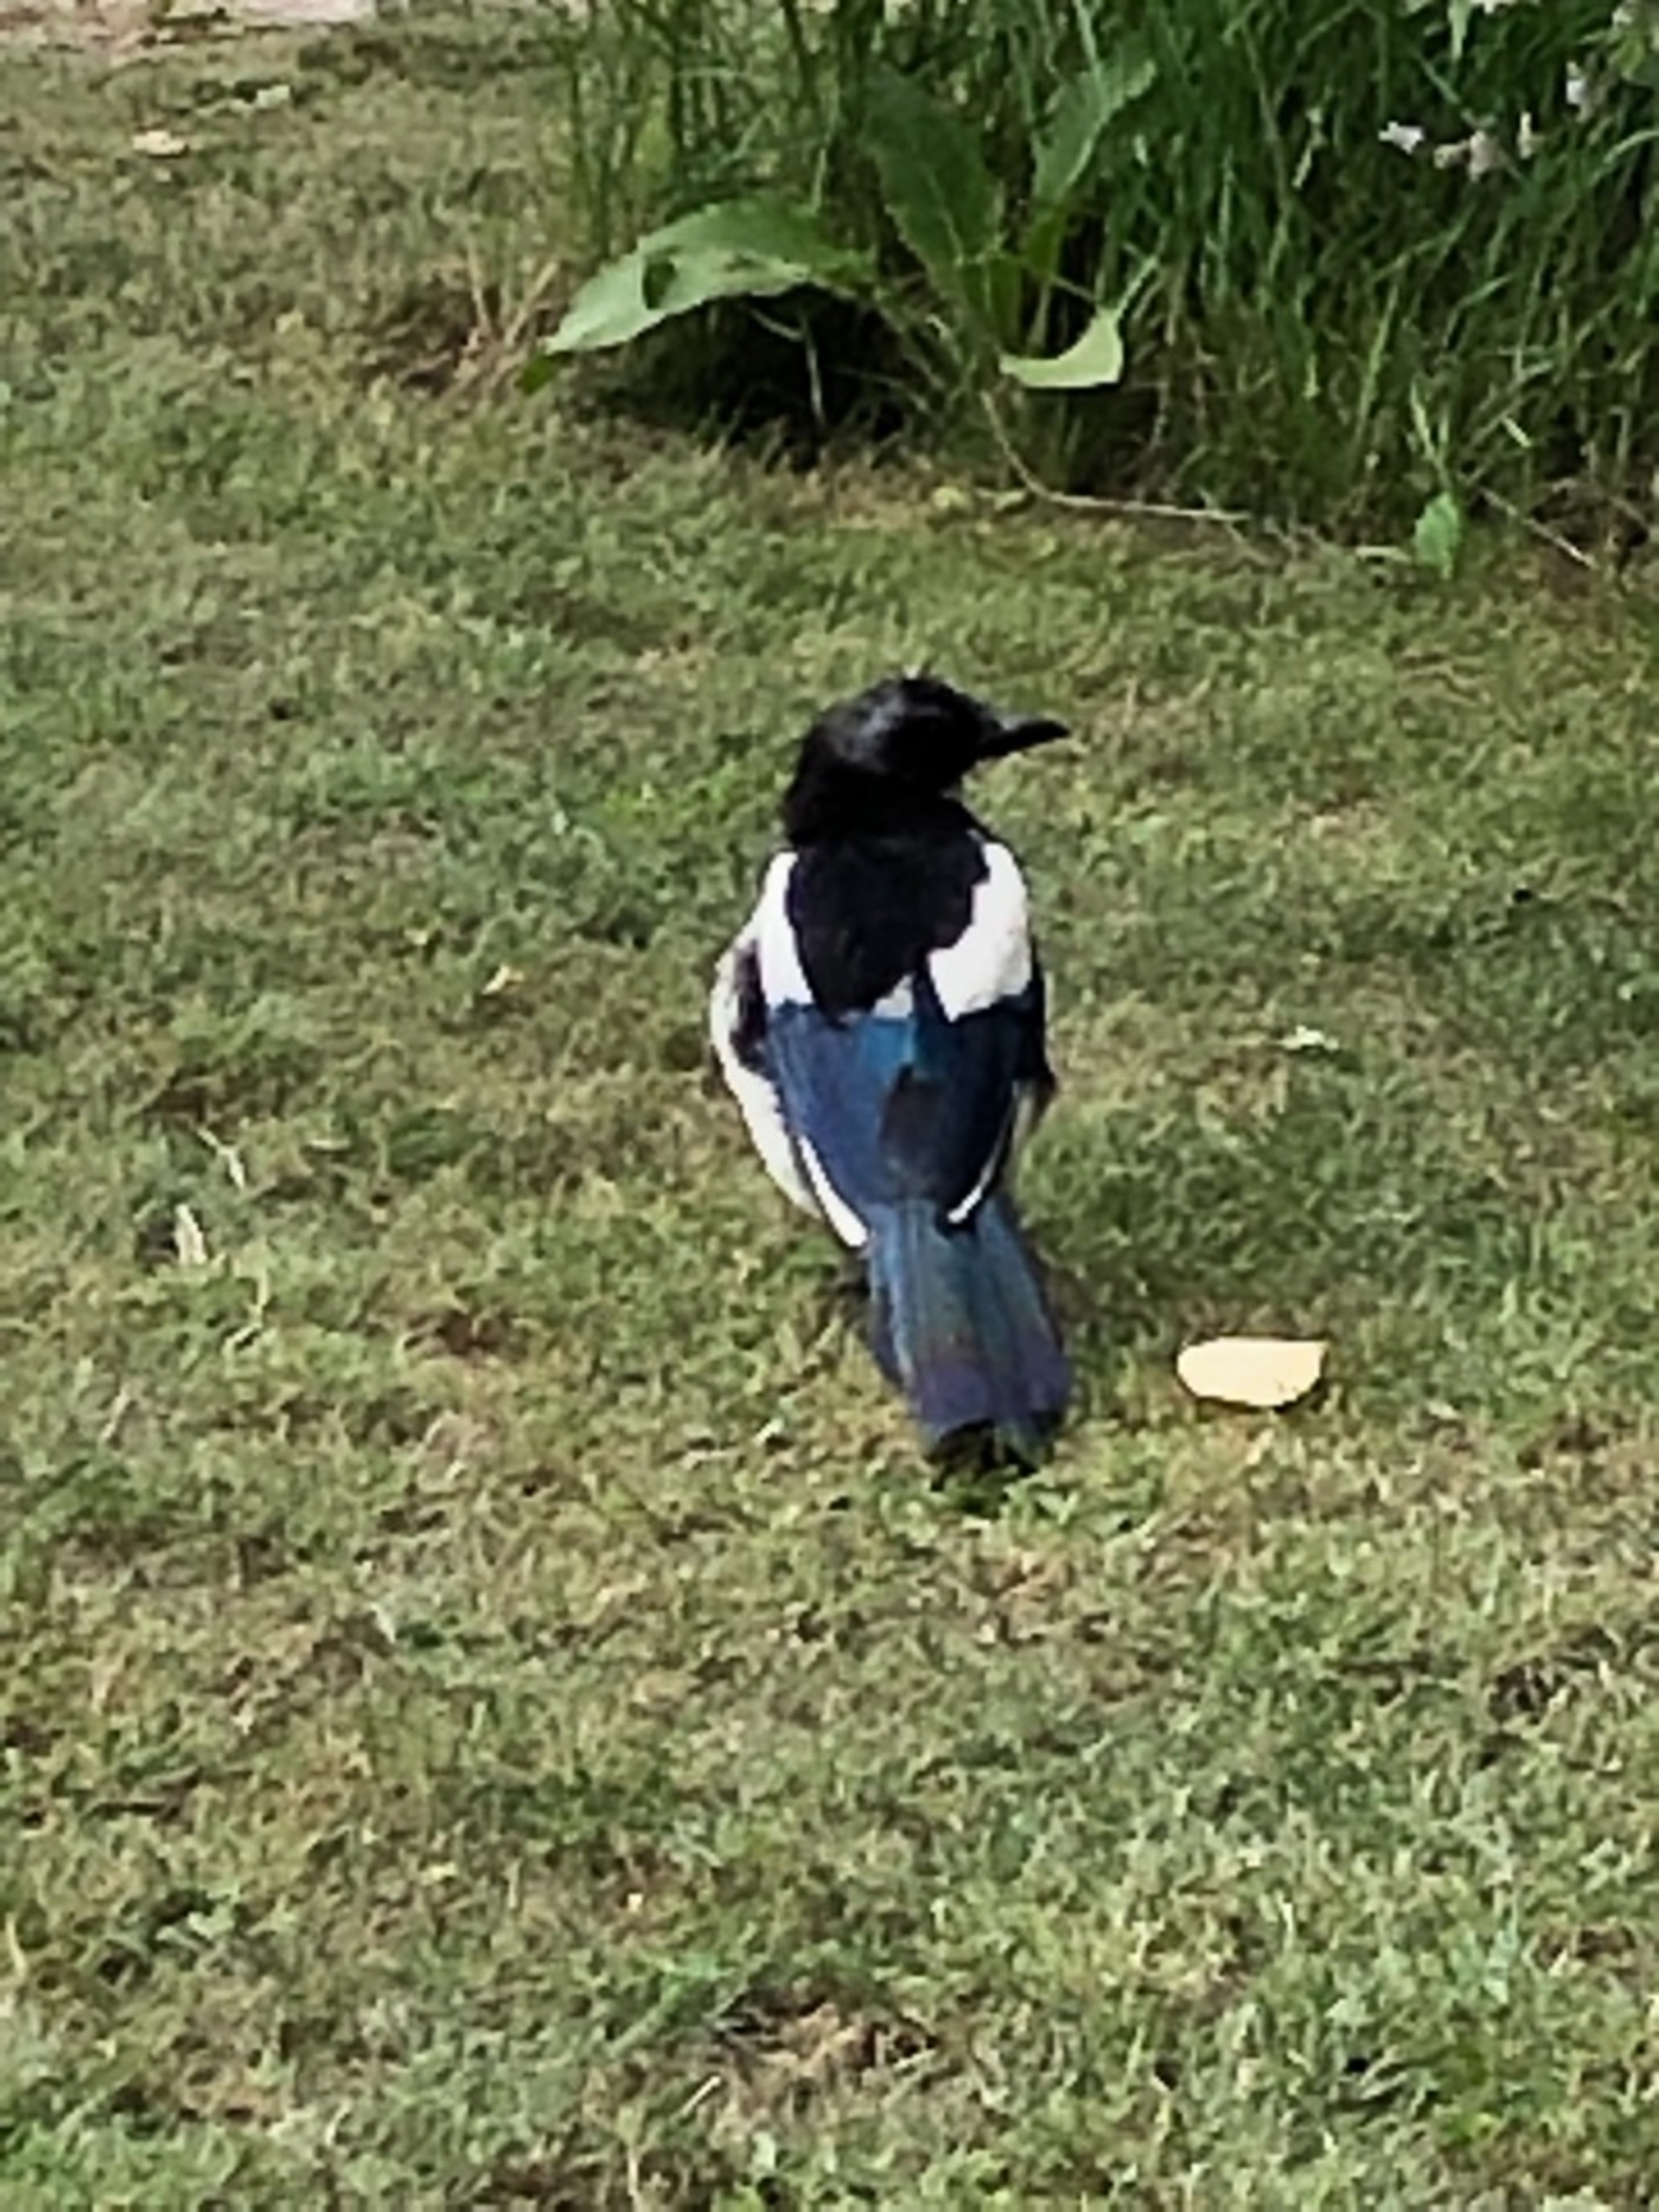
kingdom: Animalia
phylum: Chordata
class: Aves
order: Passeriformes
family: Corvidae
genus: Pica
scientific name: Pica pica
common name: Husskade
